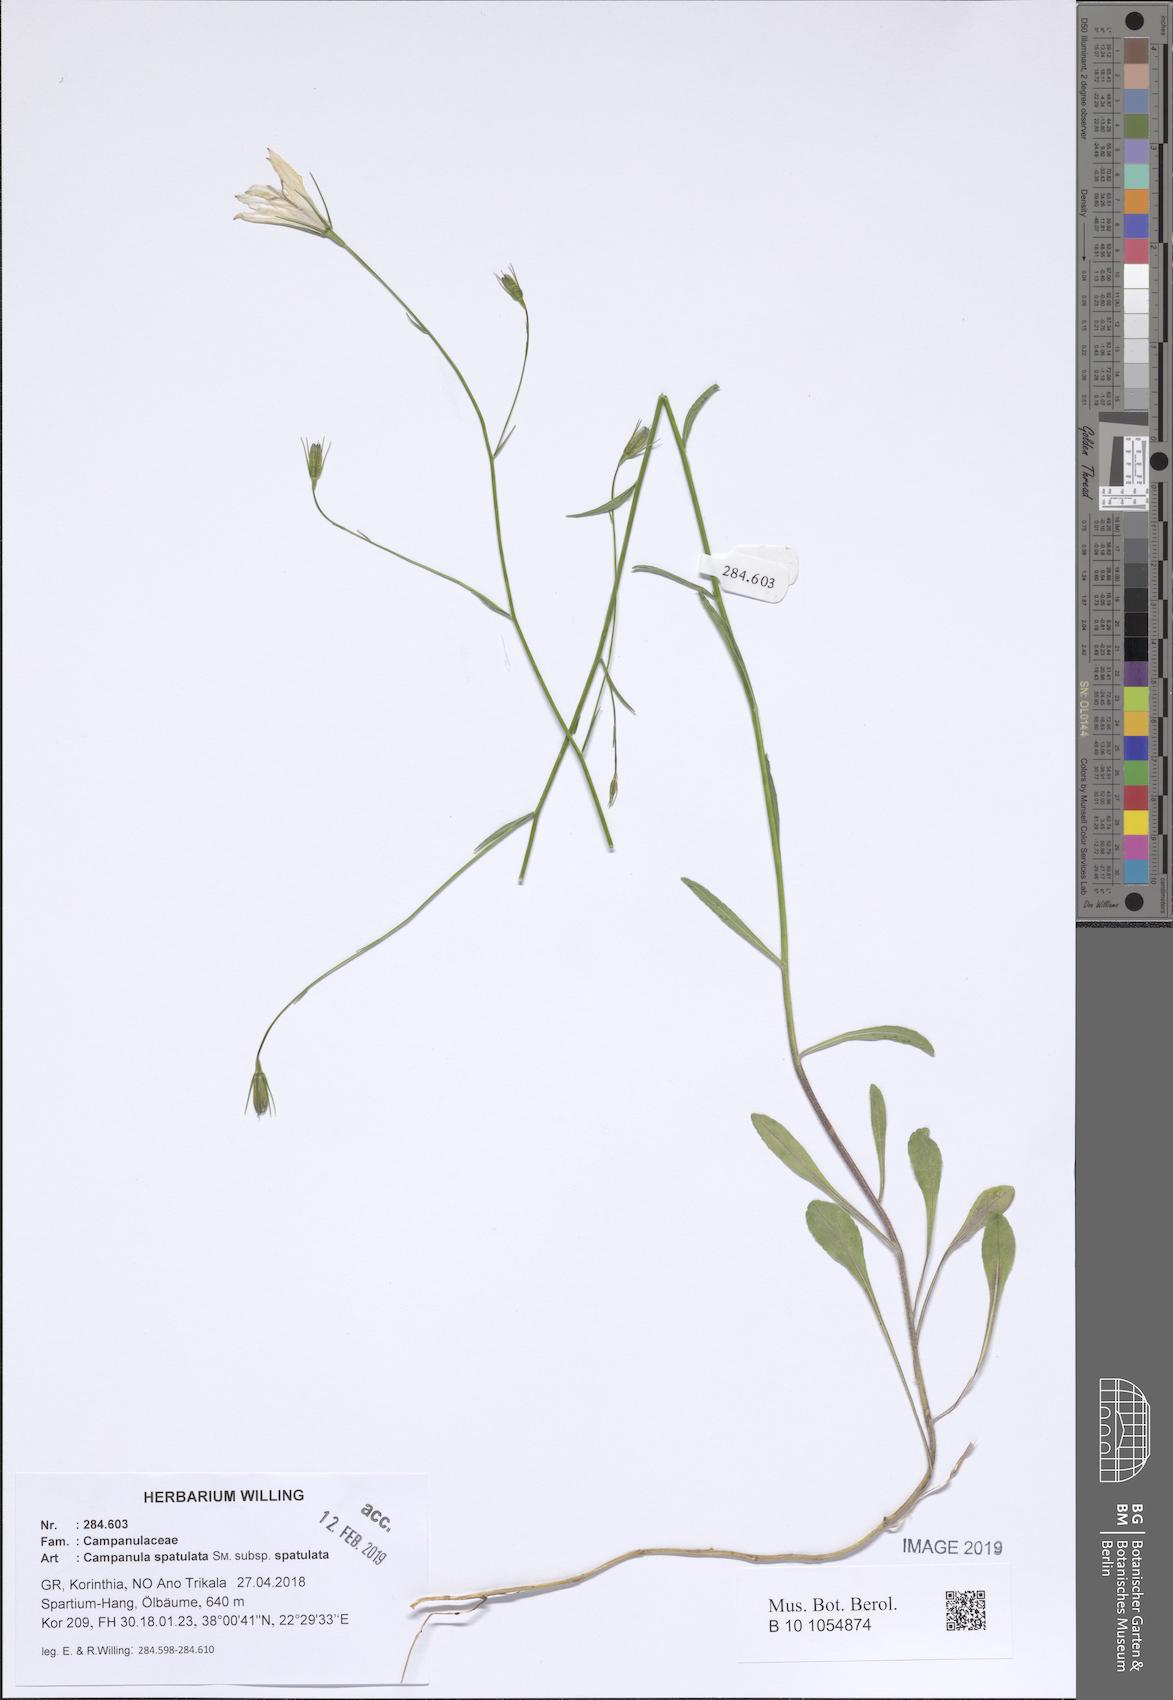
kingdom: Plantae
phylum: Tracheophyta
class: Magnoliopsida
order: Asterales
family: Campanulaceae
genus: Campanula
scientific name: Campanula spatulata
